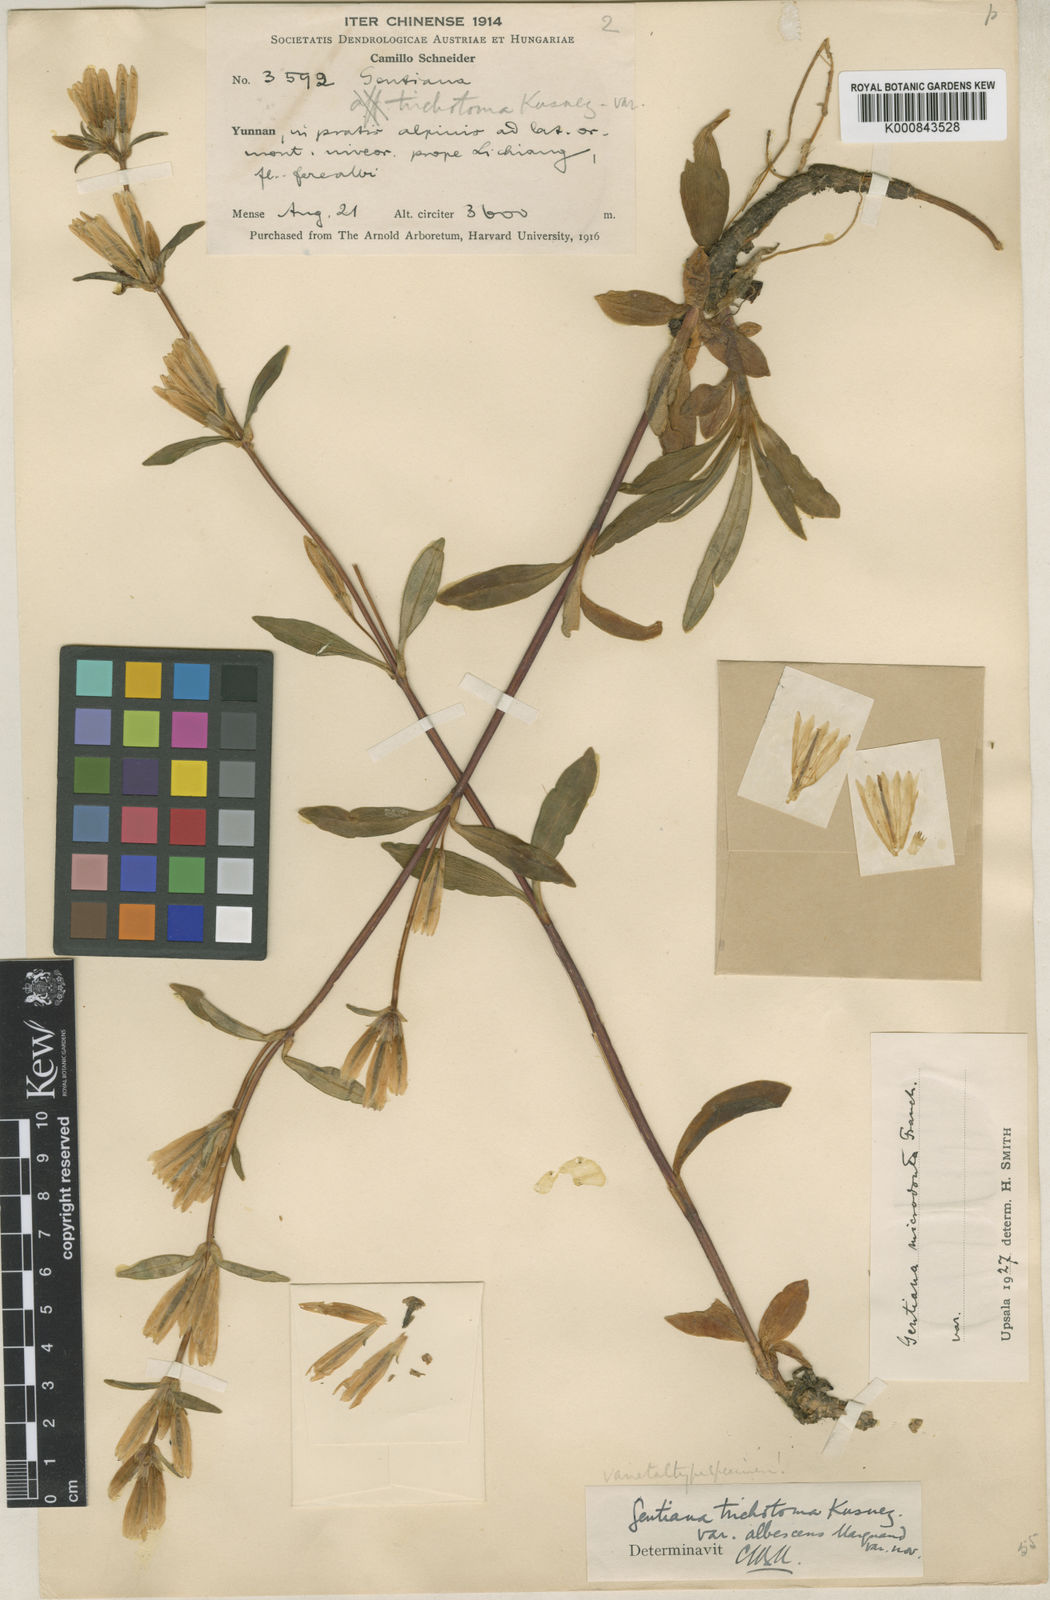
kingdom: Plantae
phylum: Tracheophyta
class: Magnoliopsida
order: Gentianales
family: Gentianaceae
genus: Gentiana
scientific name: Gentiana
